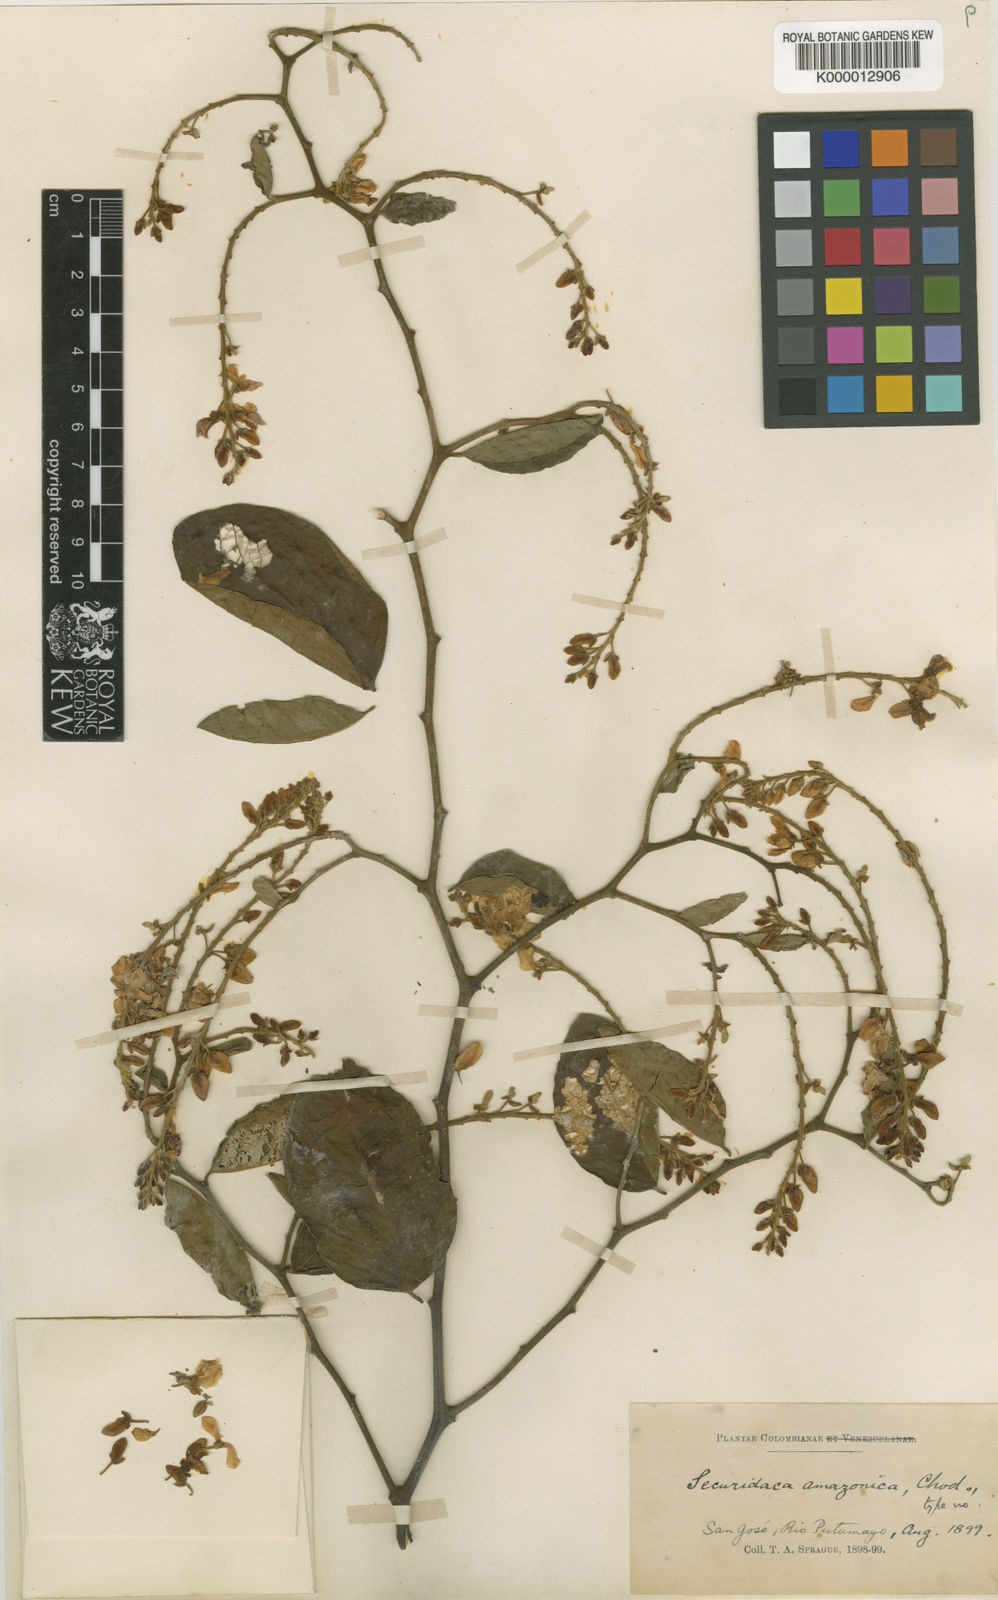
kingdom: Plantae
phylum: Tracheophyta
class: Magnoliopsida
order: Fabales
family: Polygalaceae
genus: Securidaca
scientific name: Securidaca amazonica
